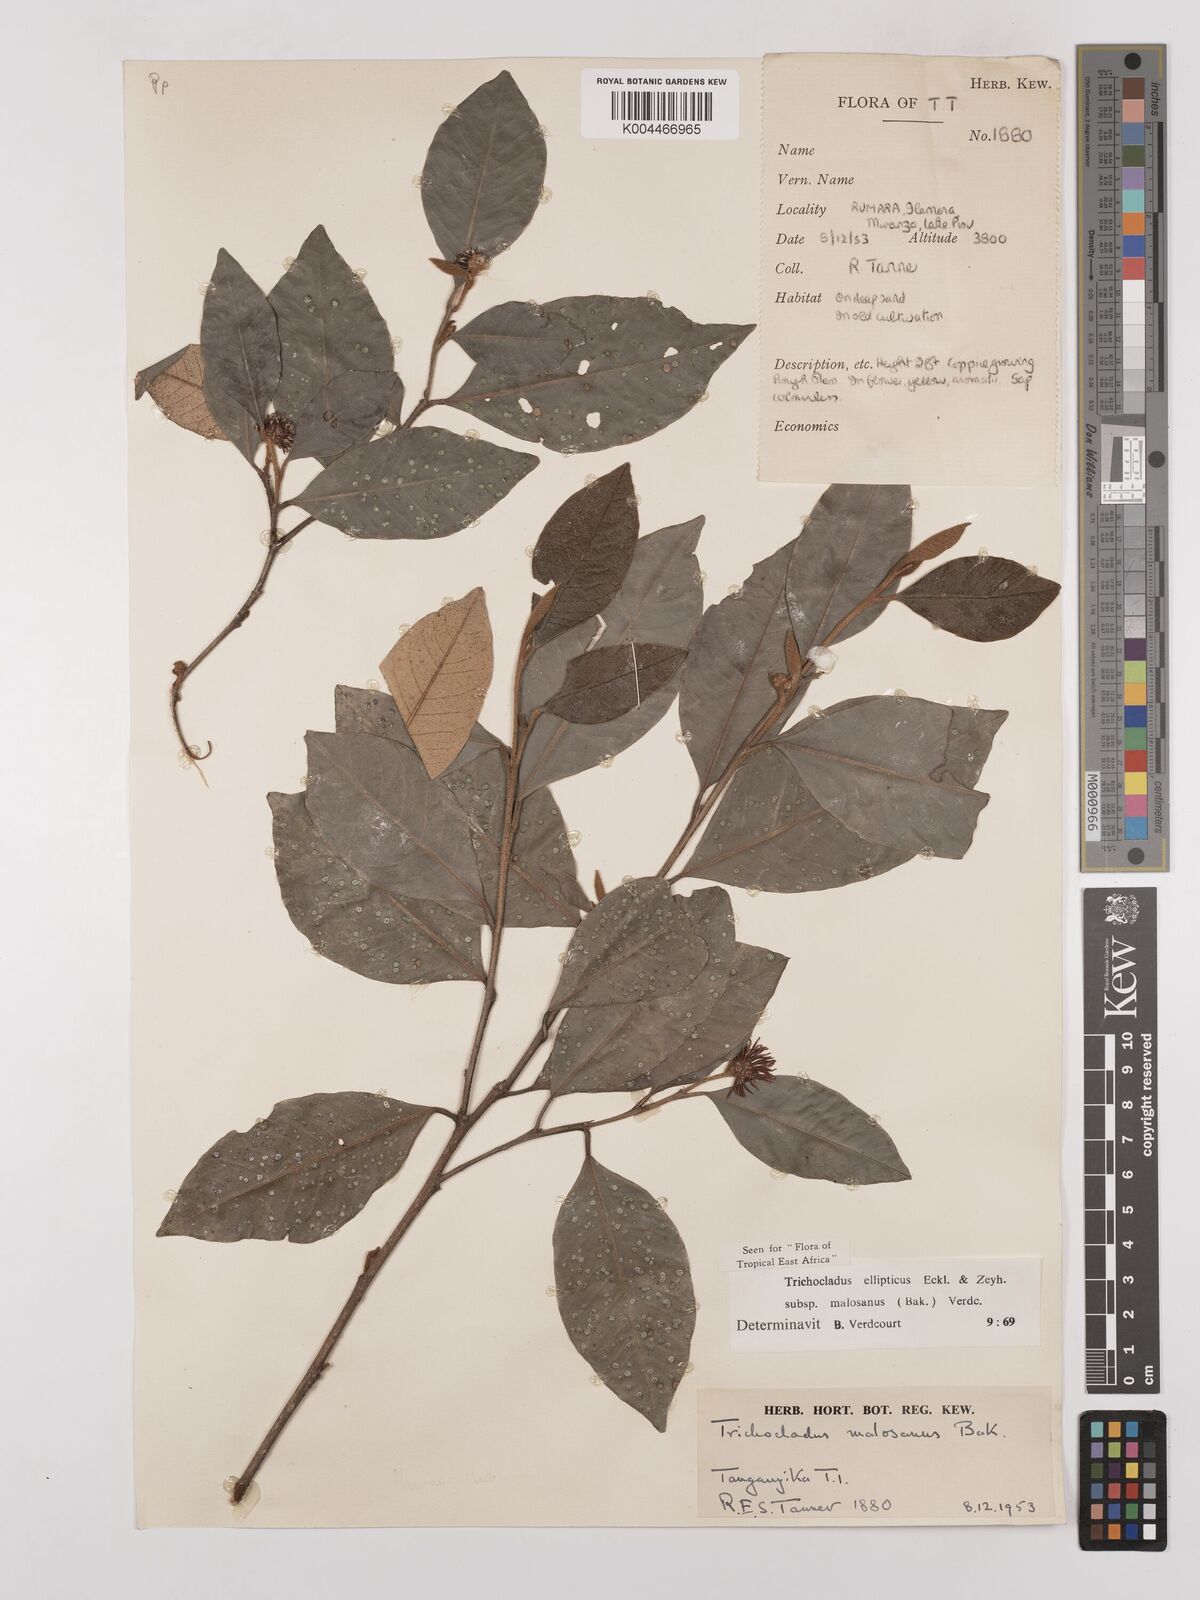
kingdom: Plantae
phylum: Tracheophyta
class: Magnoliopsida
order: Saxifragales
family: Hamamelidaceae
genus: Trichocladus
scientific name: Trichocladus ellipticus
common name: White witch-hazel
